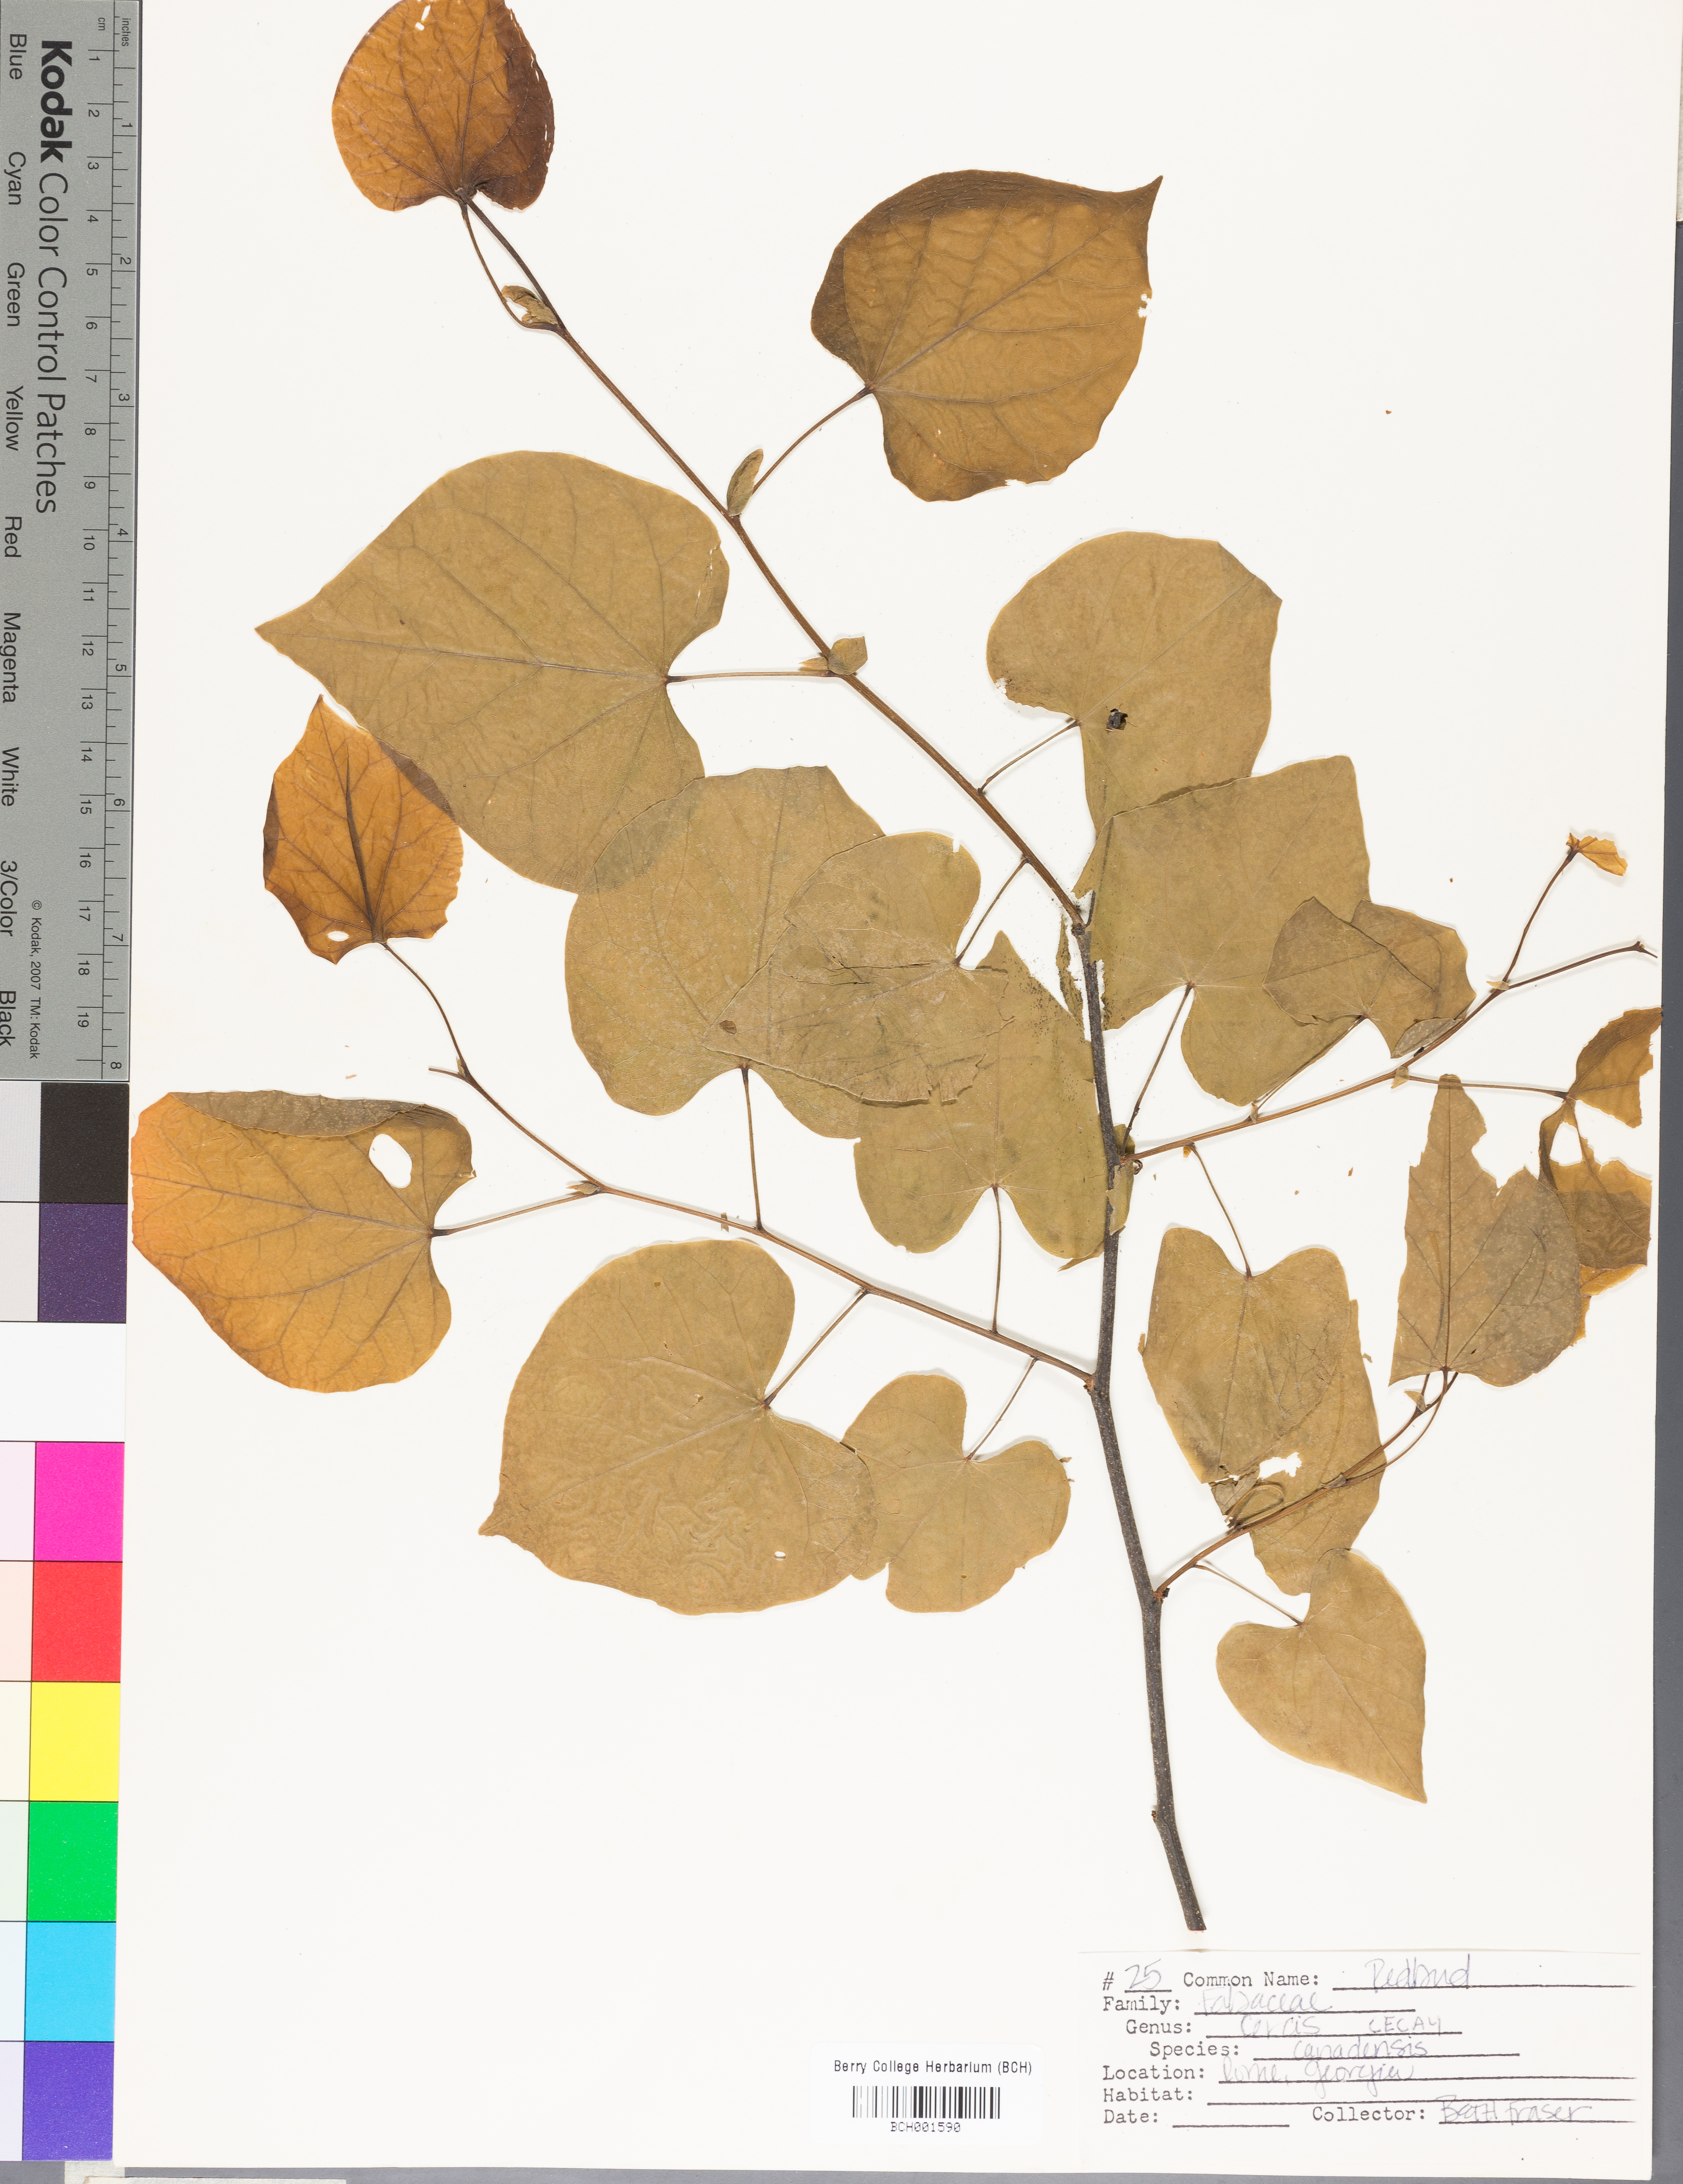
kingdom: Plantae
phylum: Tracheophyta
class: Magnoliopsida
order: Fabales
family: Fabaceae
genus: Cercis
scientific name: Cercis canadensis
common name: Eastern redbud
